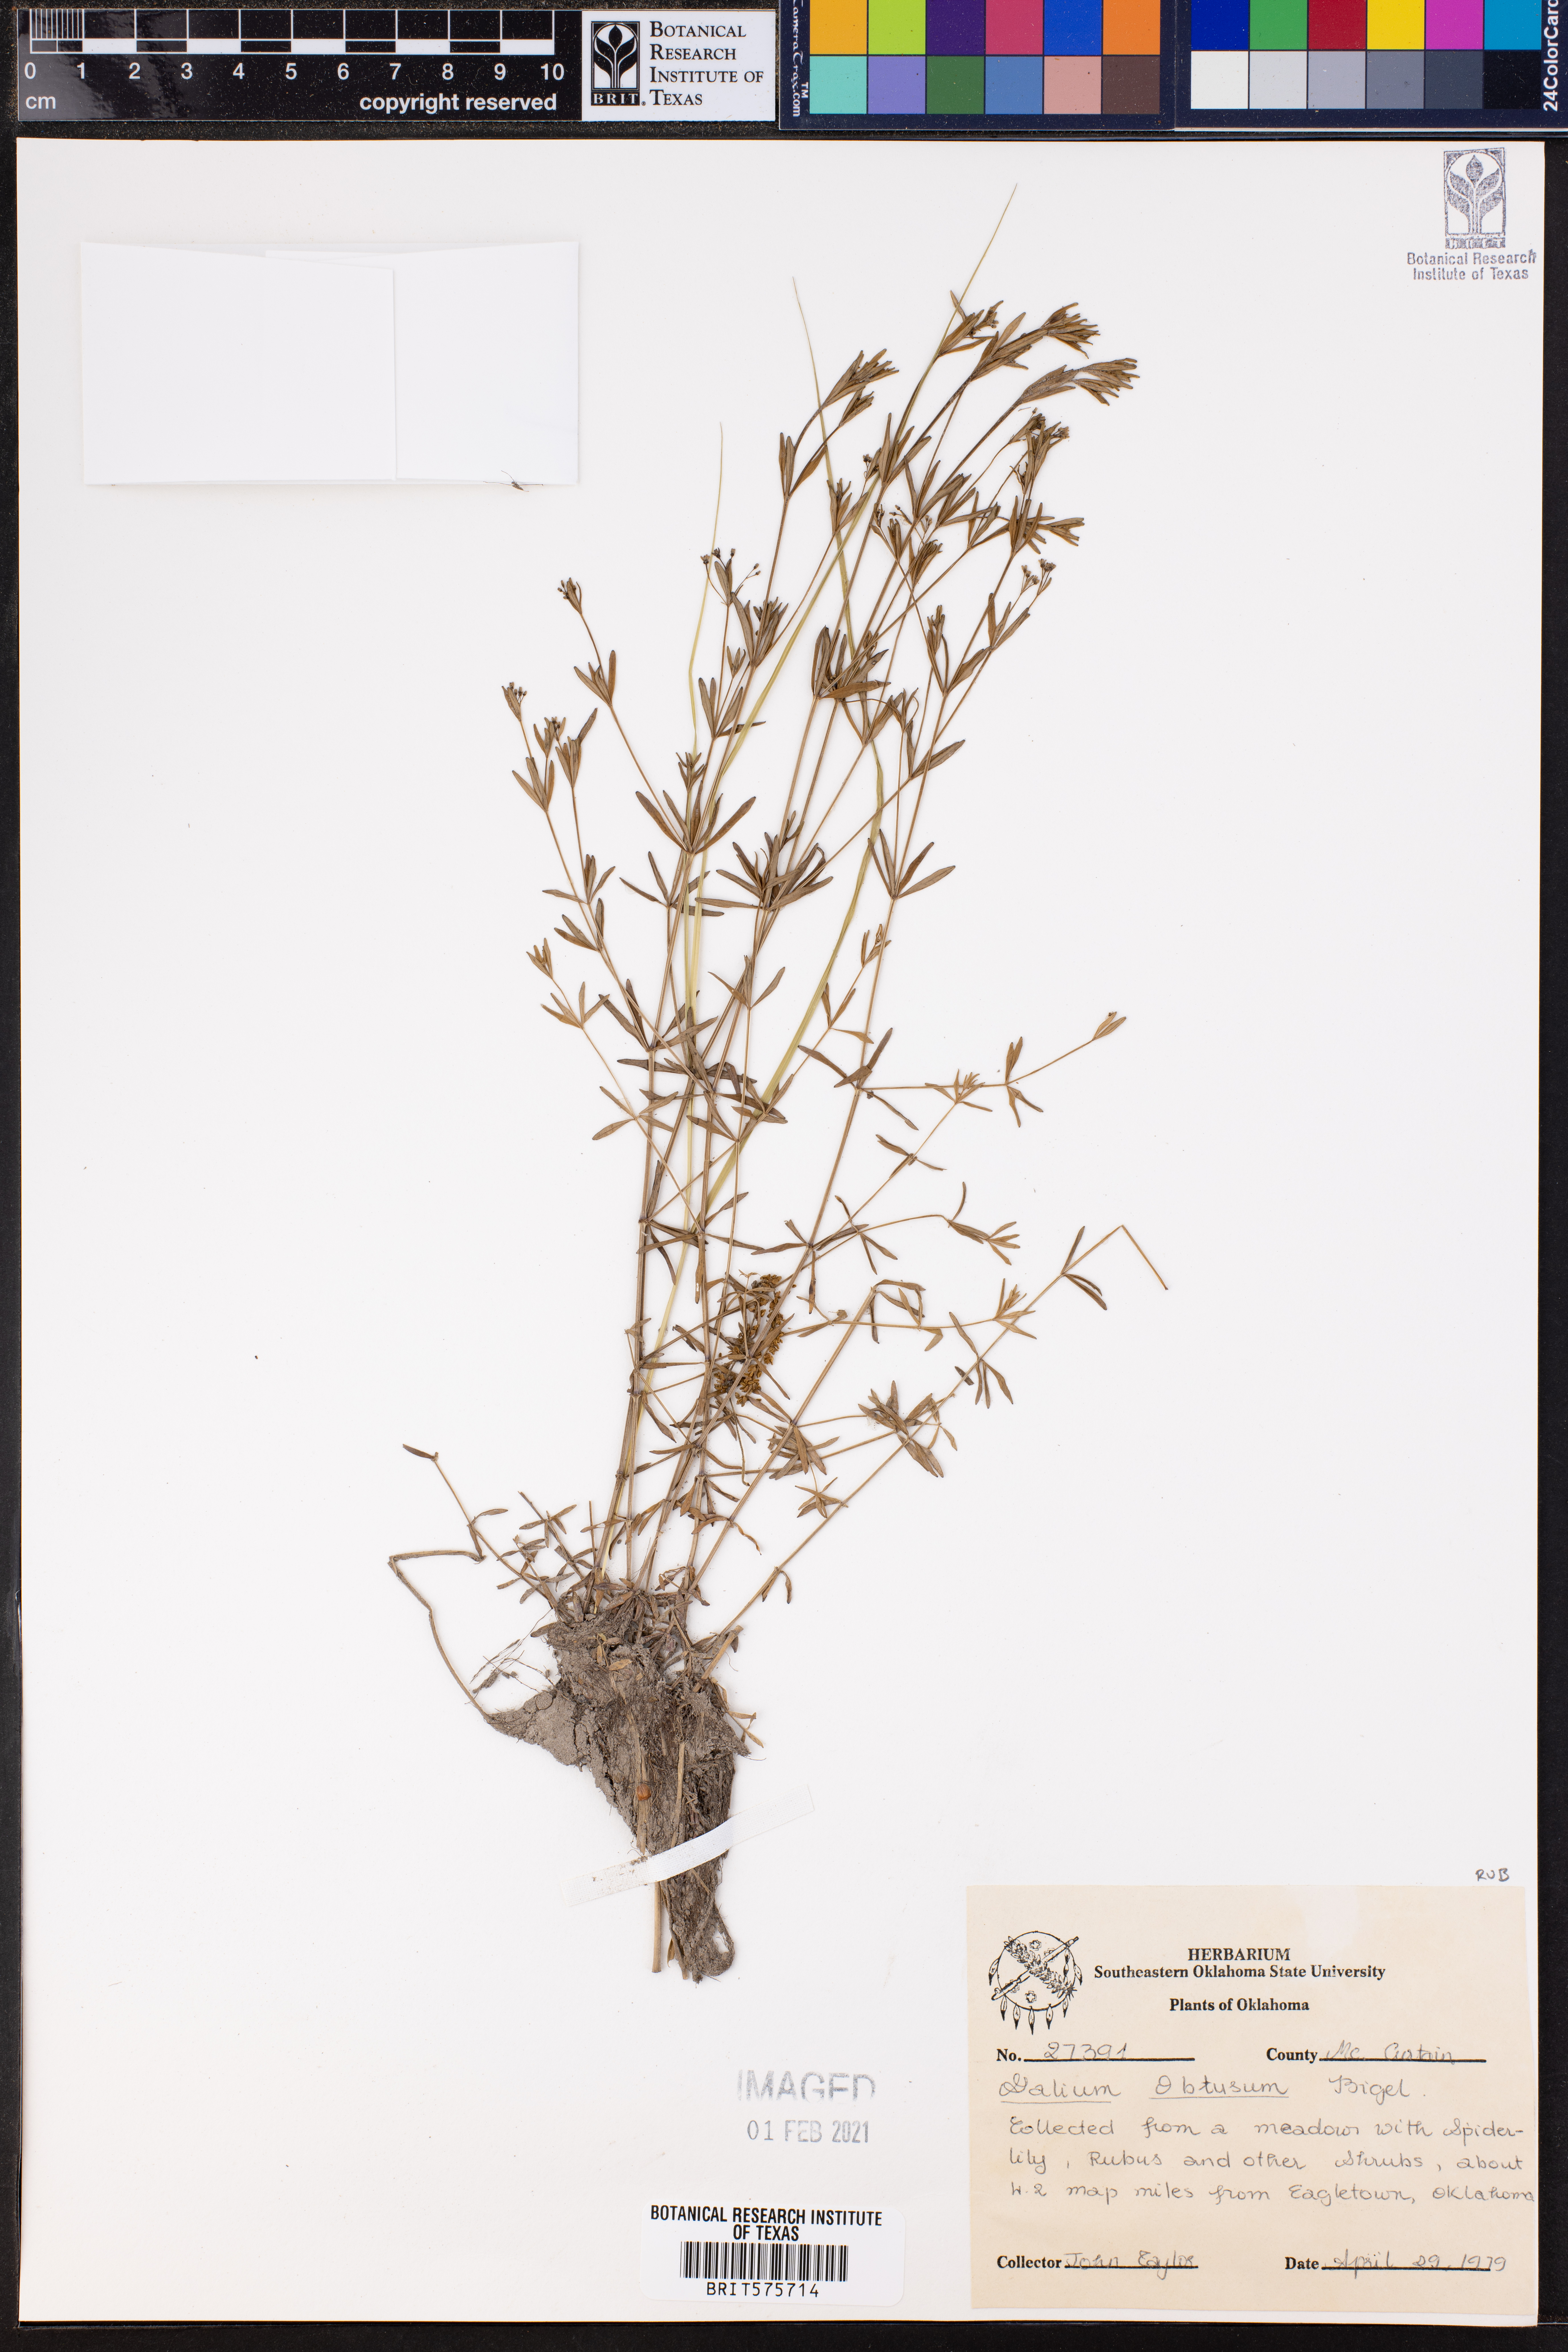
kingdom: Plantae
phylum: Tracheophyta
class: Magnoliopsida
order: Gentianales
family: Rubiaceae
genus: Galium
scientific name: Galium obtusum
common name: Blunt-leaved bedstraw
